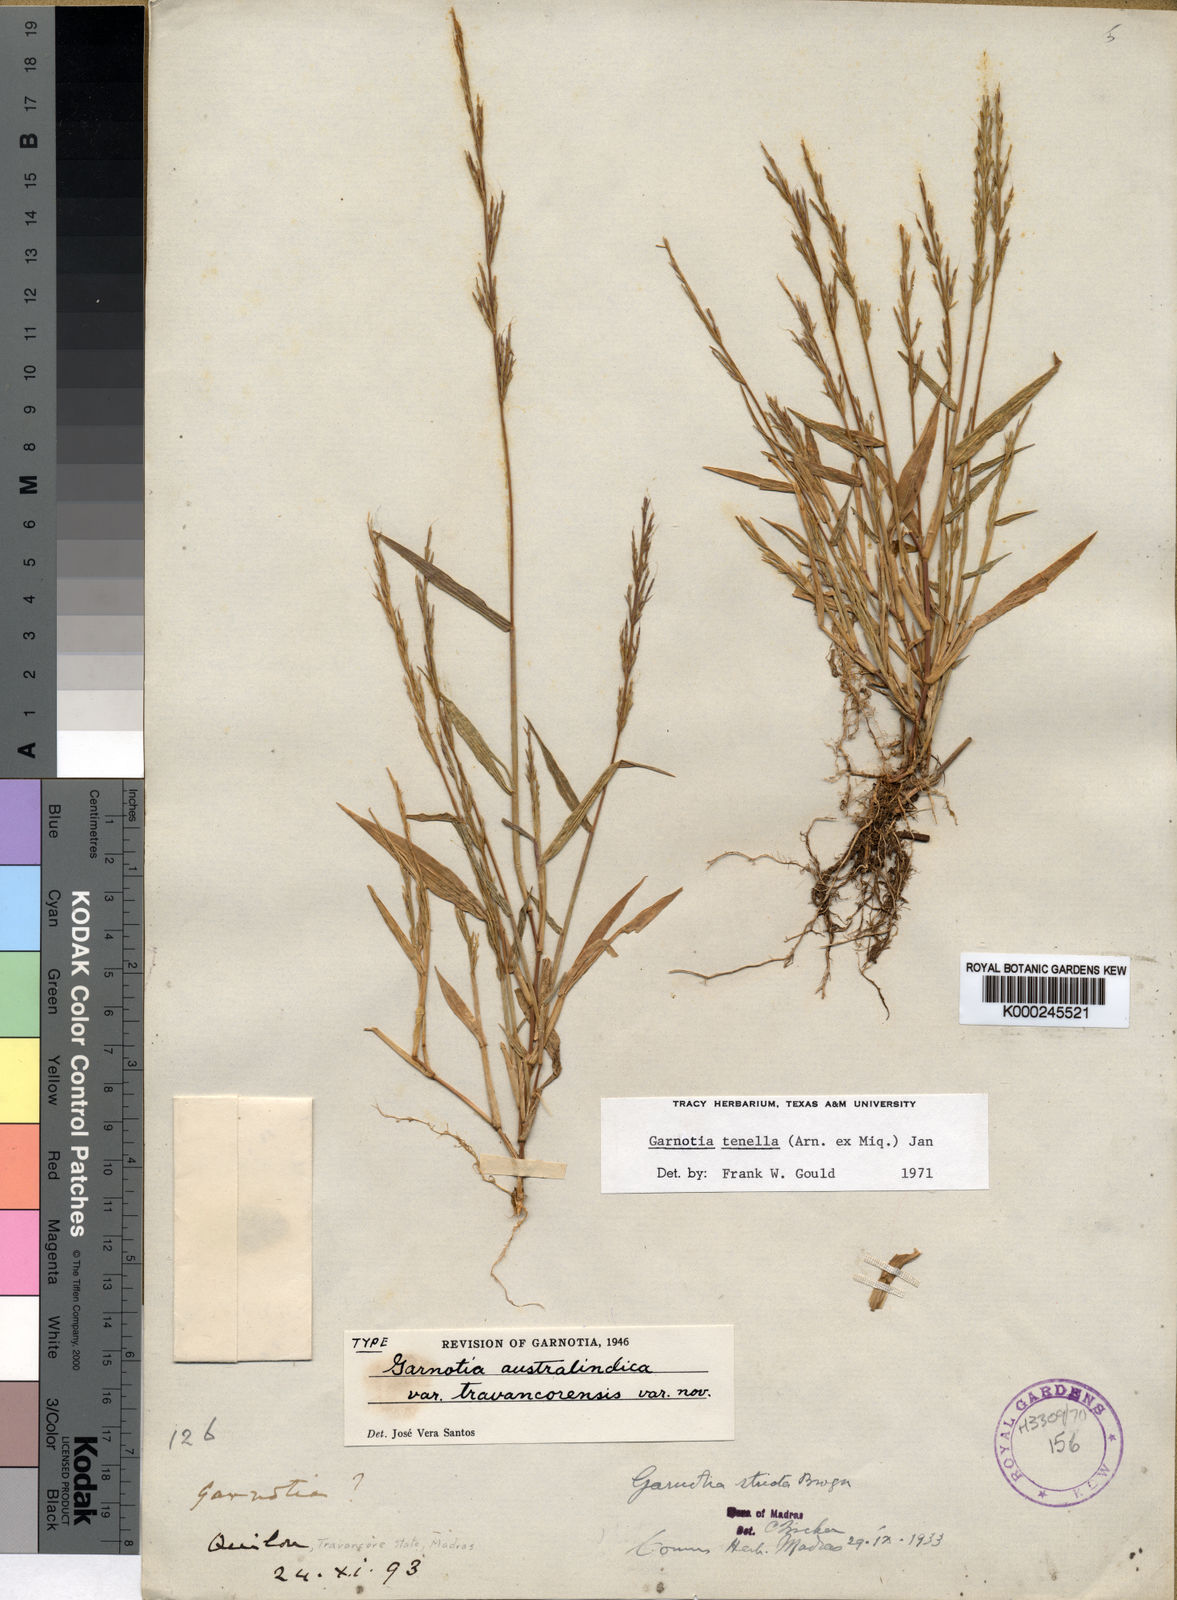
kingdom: Plantae
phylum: Tracheophyta
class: Liliopsida
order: Poales
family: Poaceae
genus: Garnotia
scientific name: Garnotia tenella
